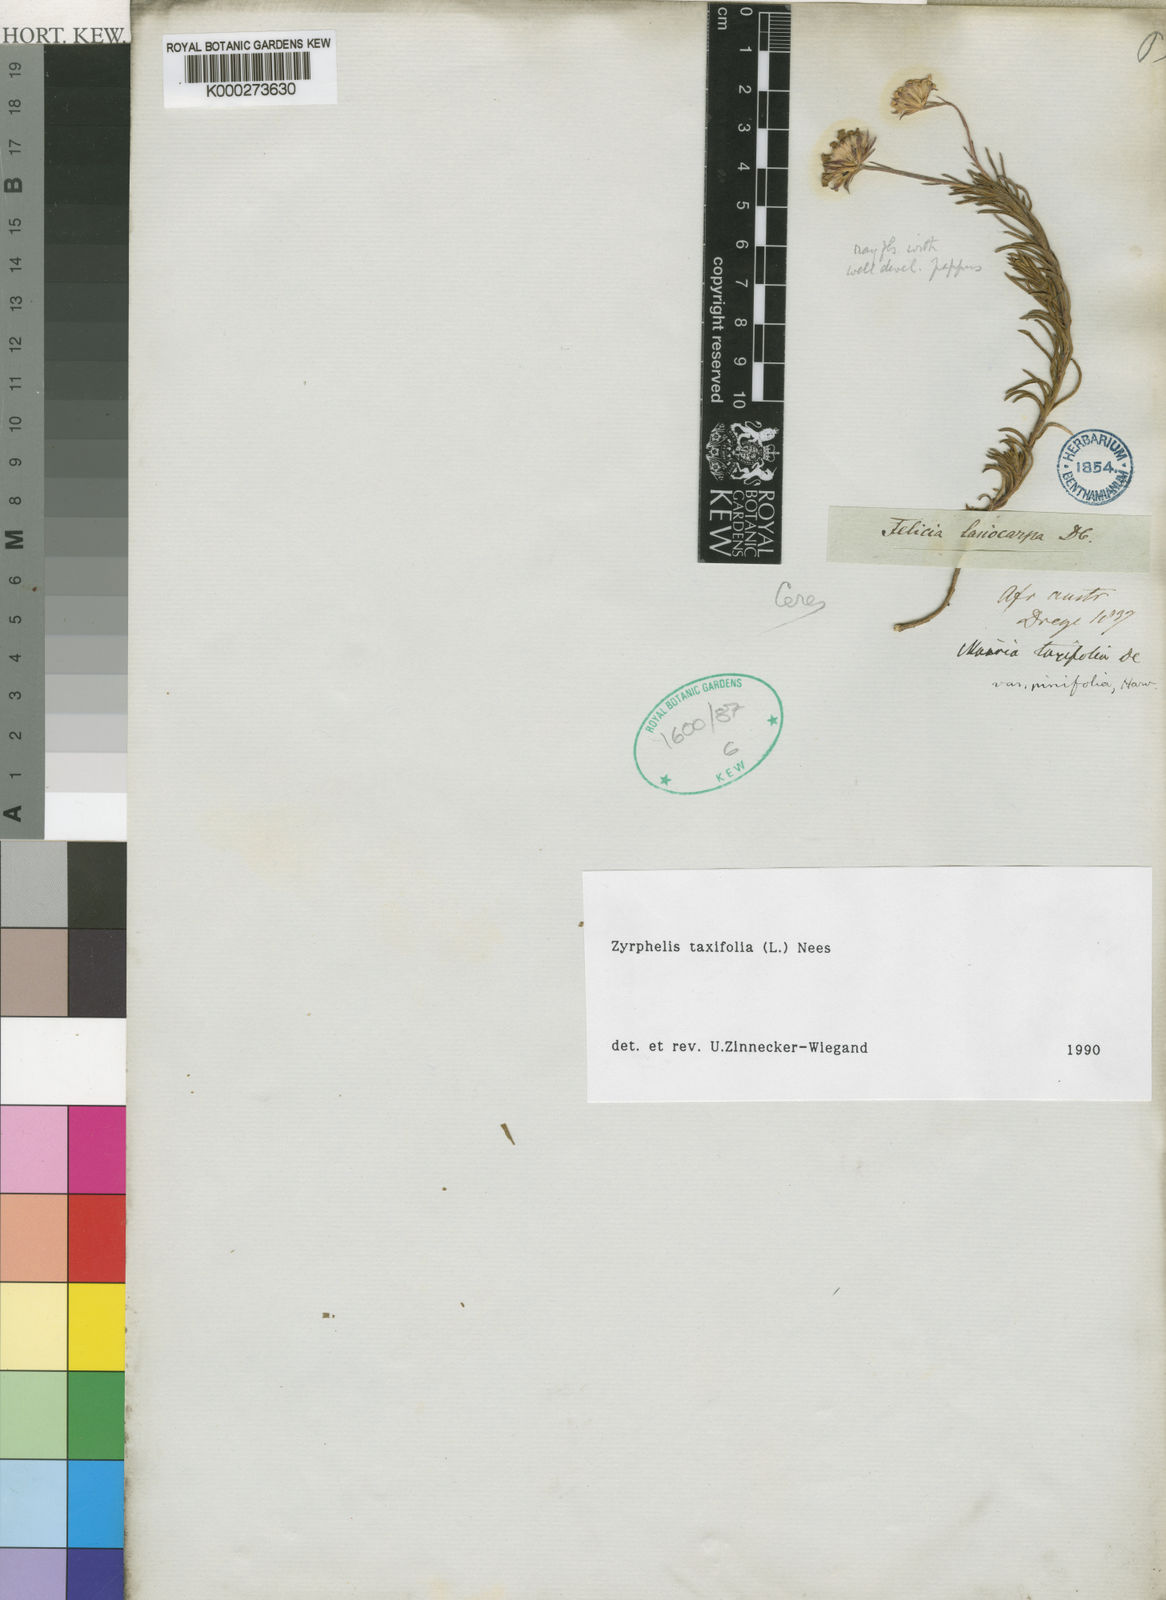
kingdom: Plantae
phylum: Tracheophyta
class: Magnoliopsida
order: Asterales
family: Asteraceae
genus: Zyrphelis
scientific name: Zyrphelis taxifolia
